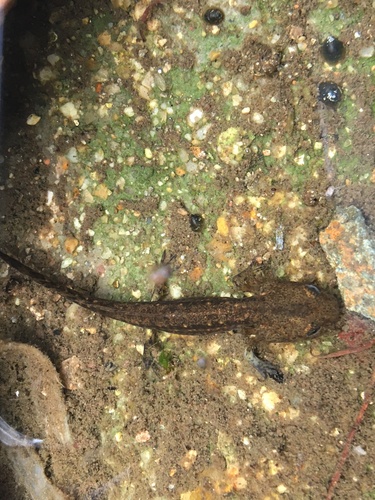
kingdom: Animalia
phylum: Chordata
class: Amphibia
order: Caudata
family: Salamandridae
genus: Salamandra
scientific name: Salamandra salamandra
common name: Fire salamander
